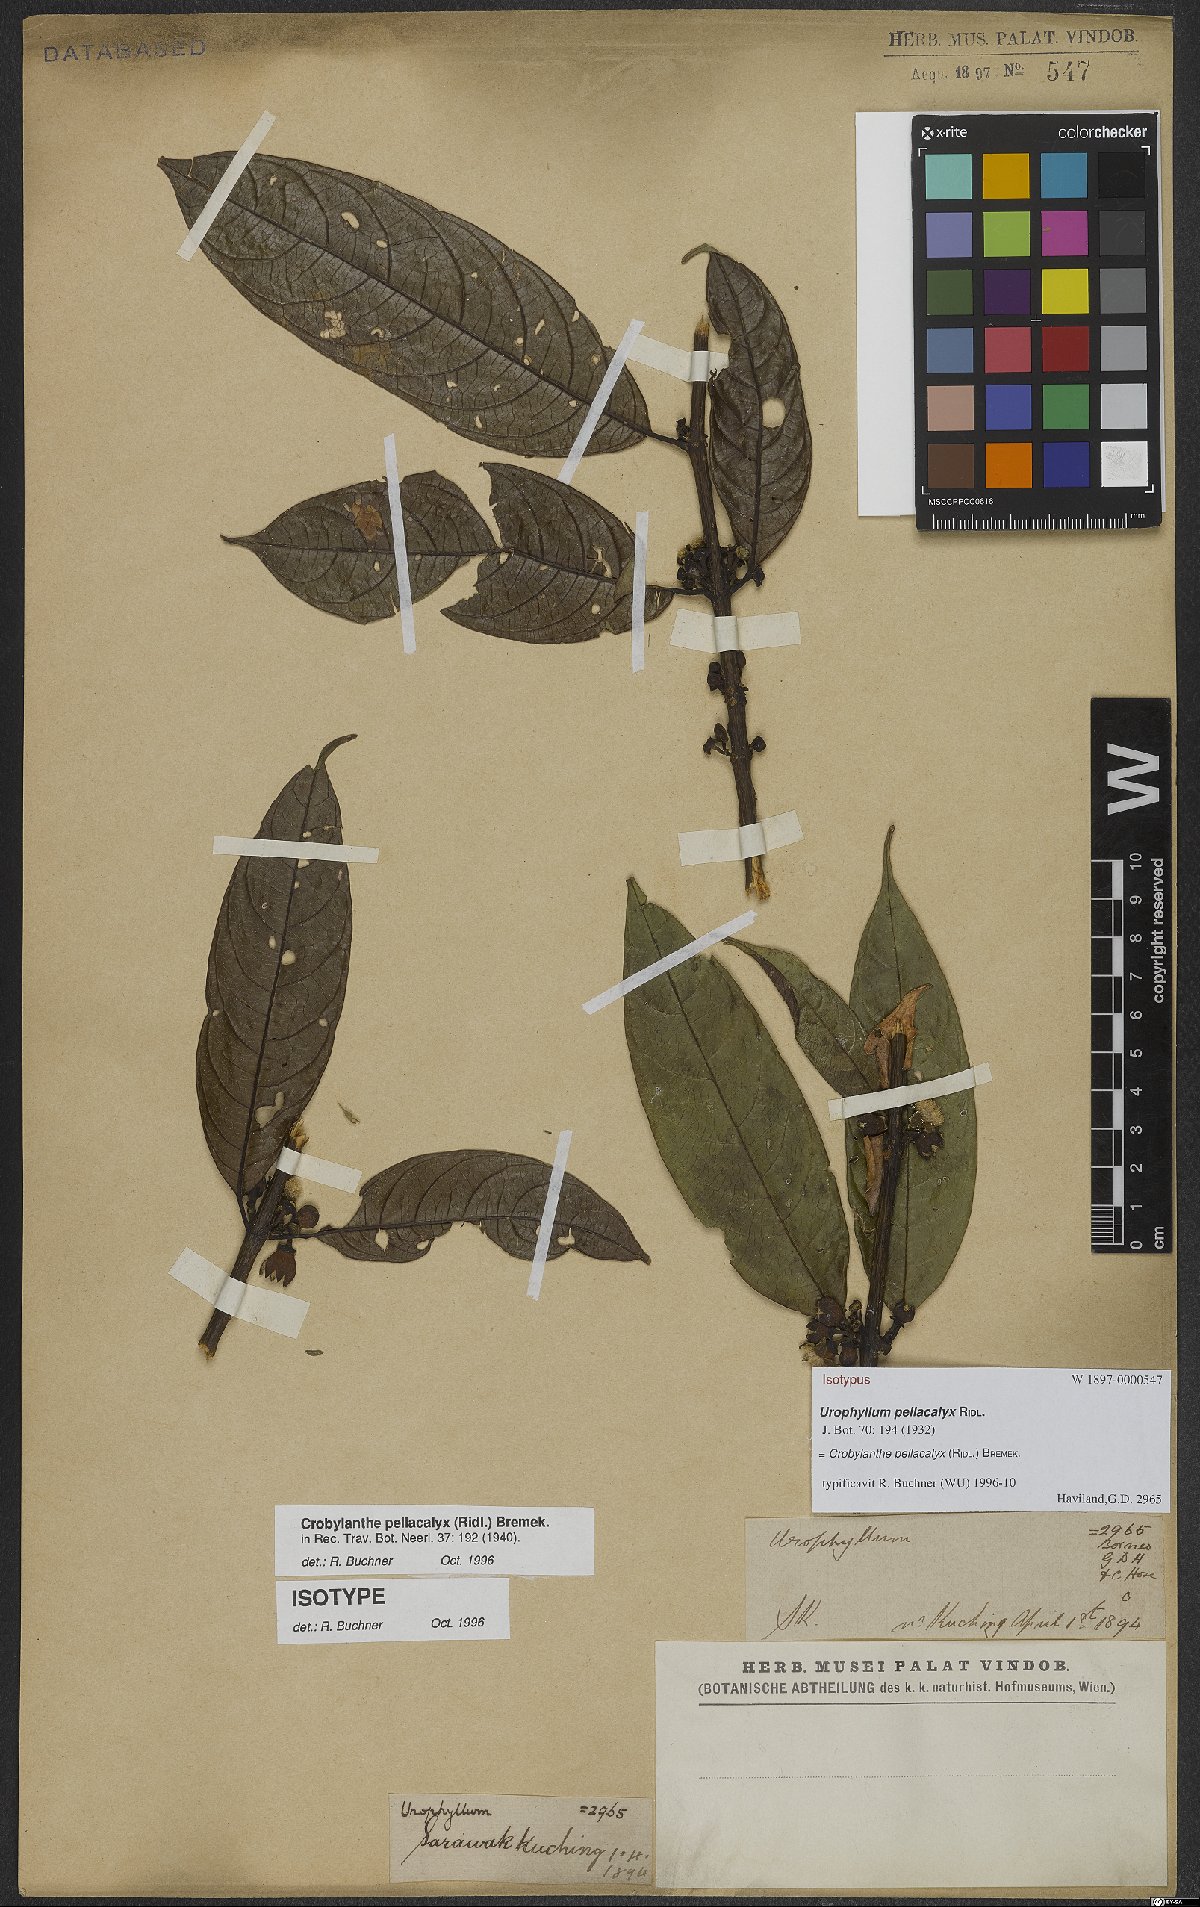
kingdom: Plantae
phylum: Tracheophyta
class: Magnoliopsida
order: Gentianales
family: Rubiaceae
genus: Crobylanthe
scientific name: Crobylanthe pellacalyx
